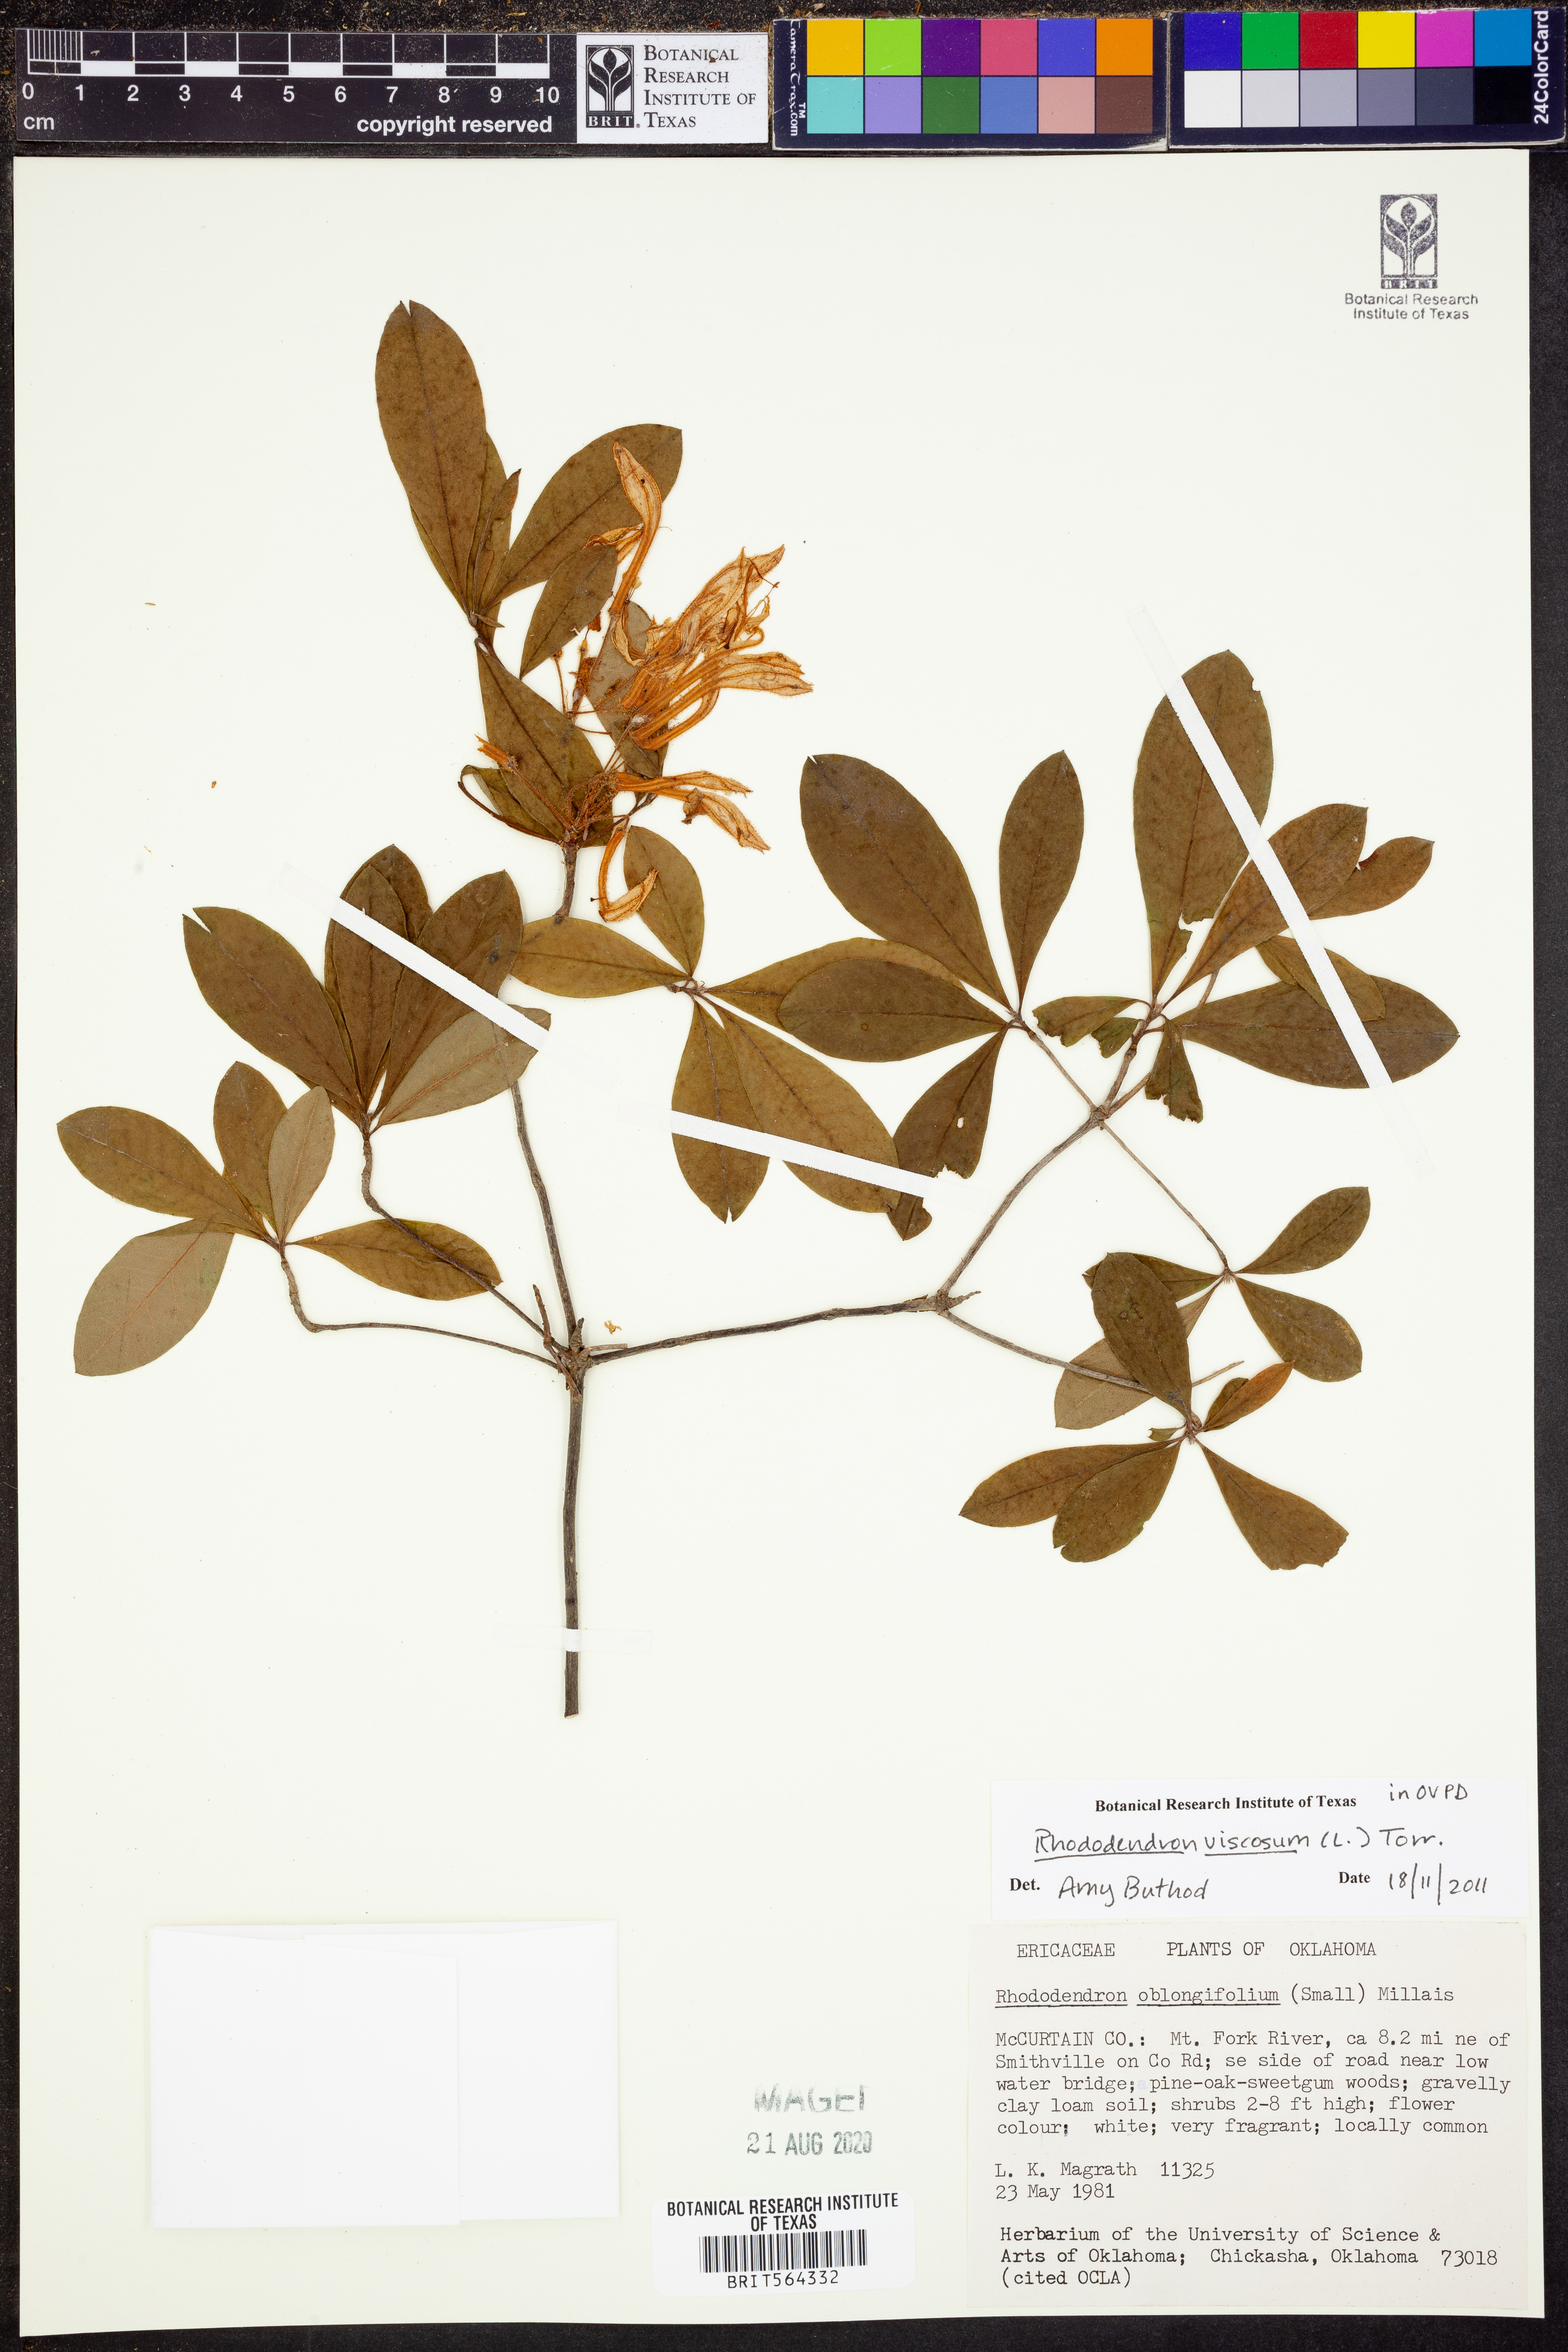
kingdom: Plantae
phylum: Tracheophyta
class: Magnoliopsida
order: Ericales
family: Ericaceae
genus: Rhododendron
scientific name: Rhododendron viscosum
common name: Clammy azalea
